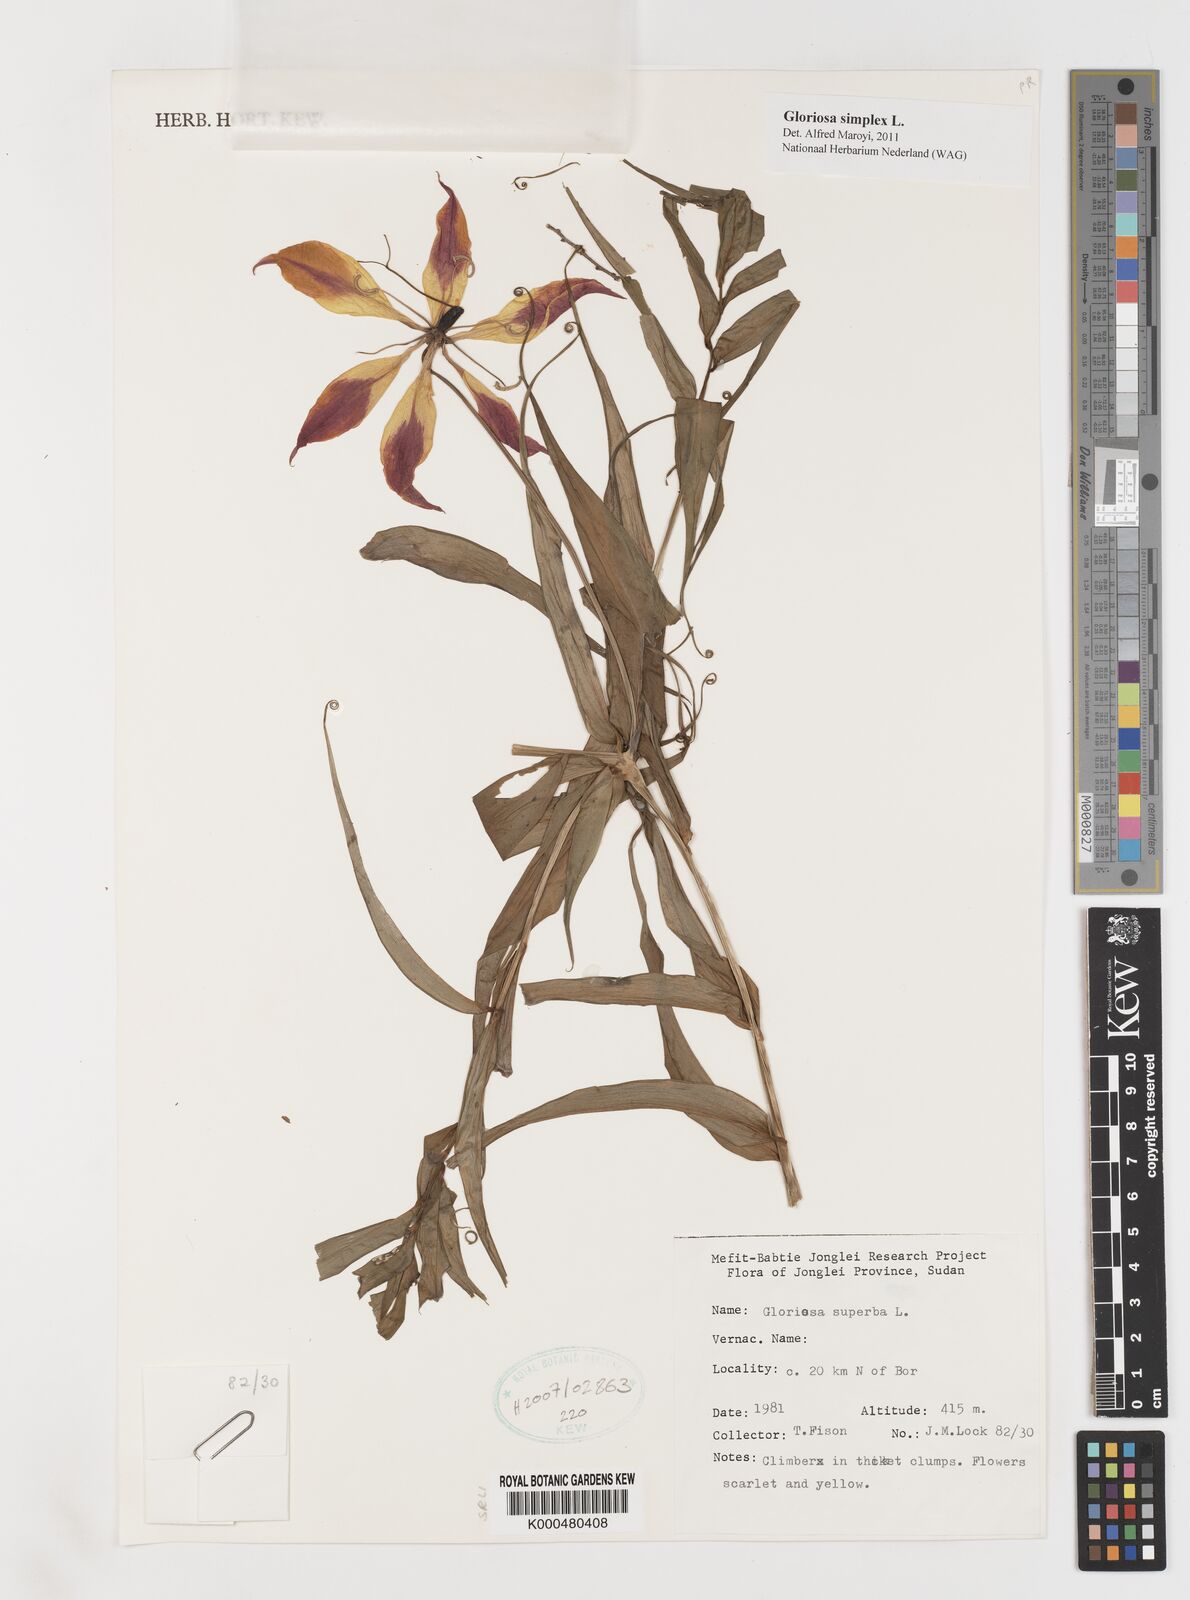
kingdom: Plantae
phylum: Tracheophyta
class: Liliopsida
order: Liliales
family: Colchicaceae
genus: Gloriosa
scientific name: Gloriosa simplex
